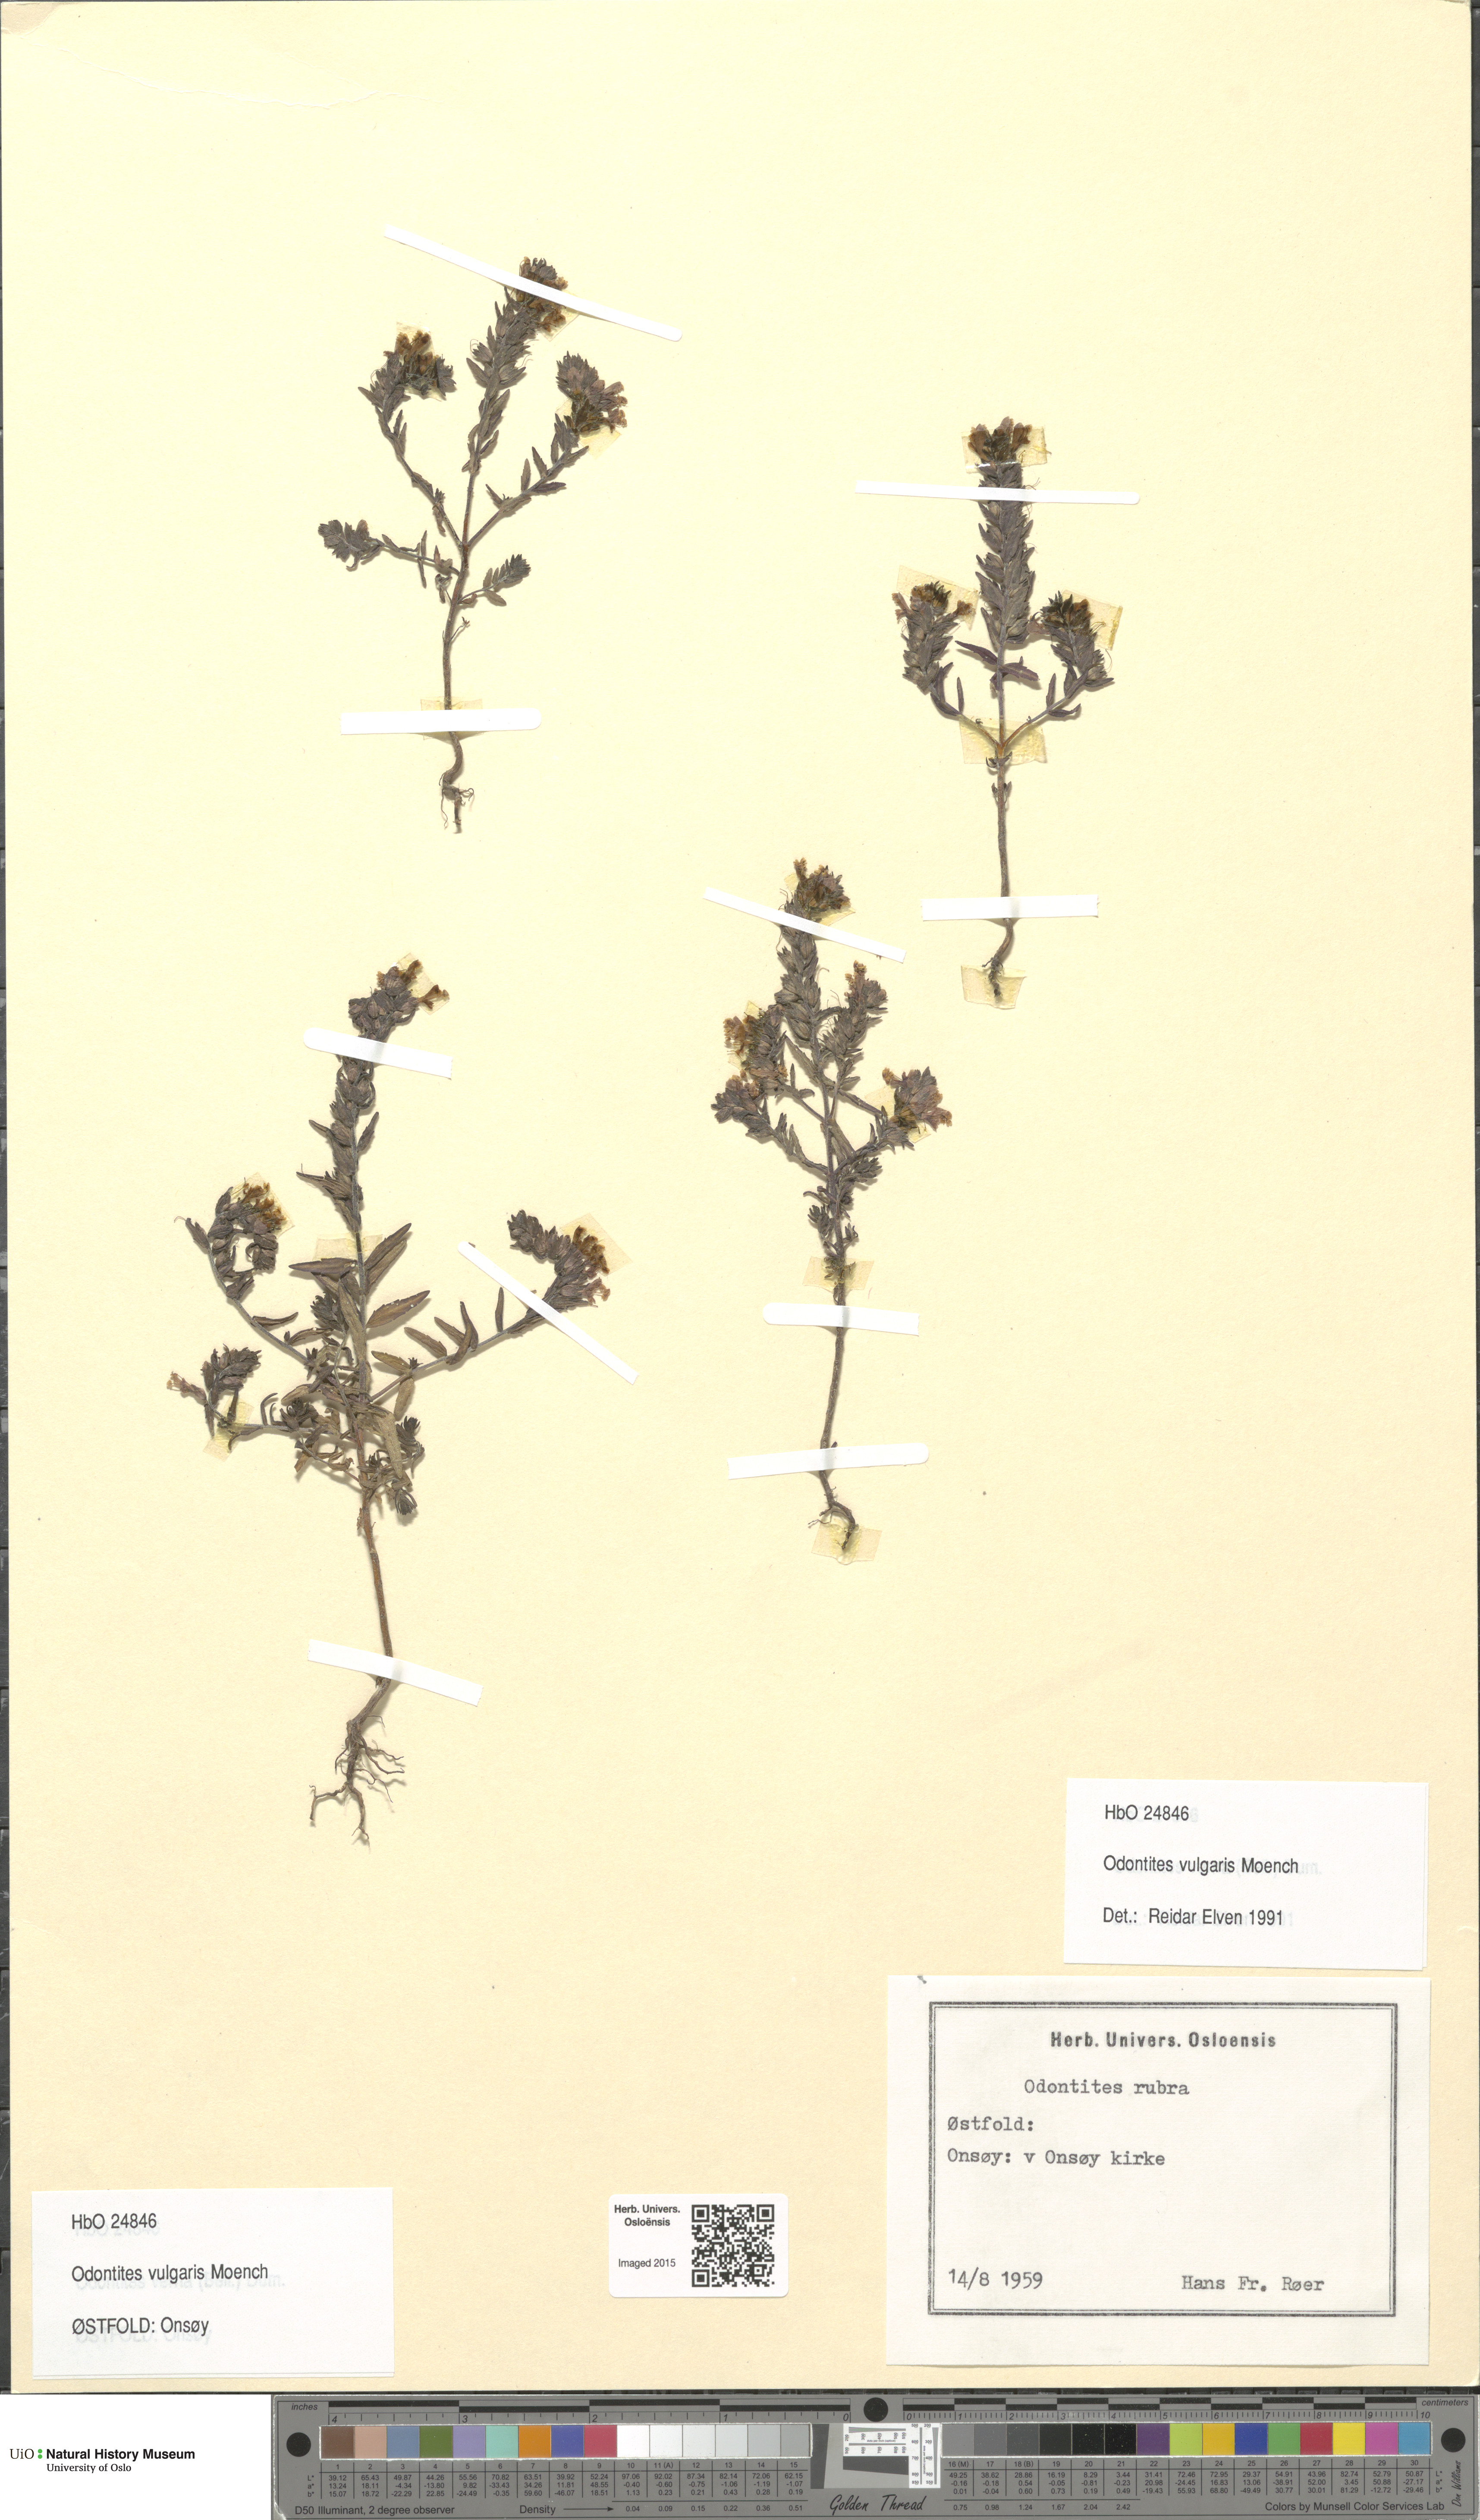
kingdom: Plantae
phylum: Tracheophyta
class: Magnoliopsida
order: Lamiales
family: Orobanchaceae
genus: Odontites
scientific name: Odontites vulgaris
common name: Broomrape
